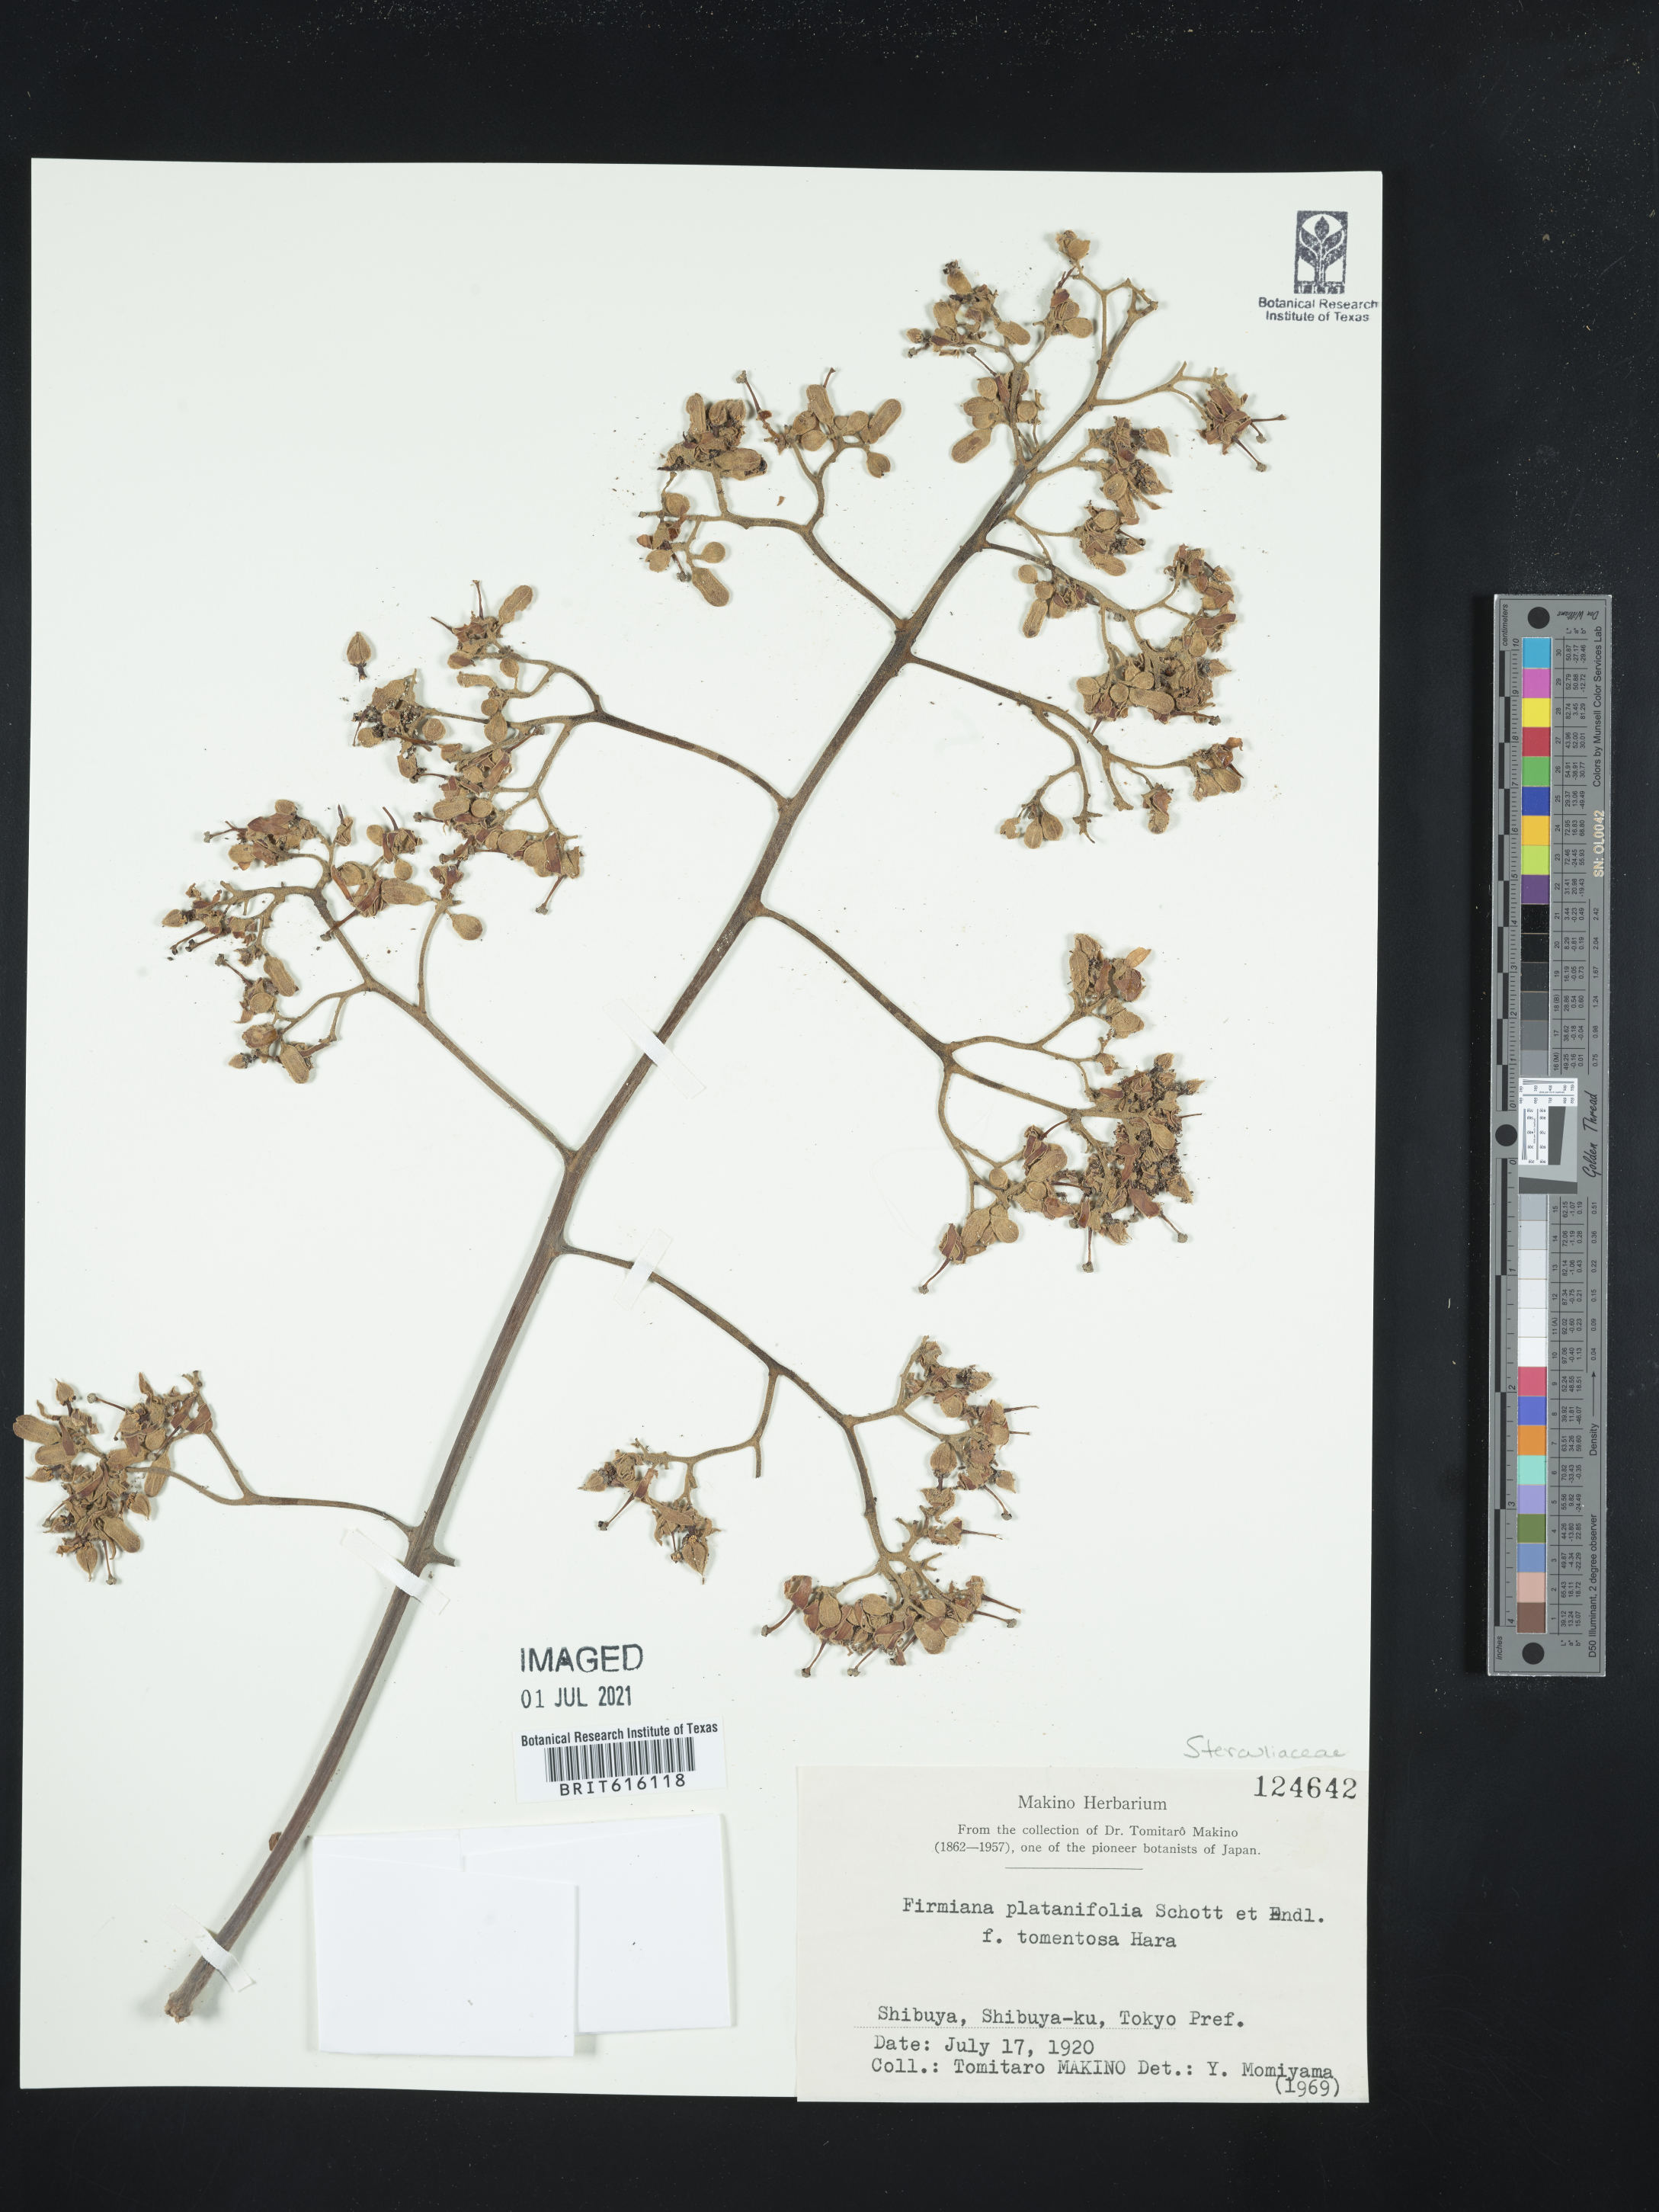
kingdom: Plantae
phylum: Tracheophyta
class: Magnoliopsida
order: Malvales
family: Malvaceae
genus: Firmiana
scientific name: Firmiana simplex
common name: Chinese parasoltree
